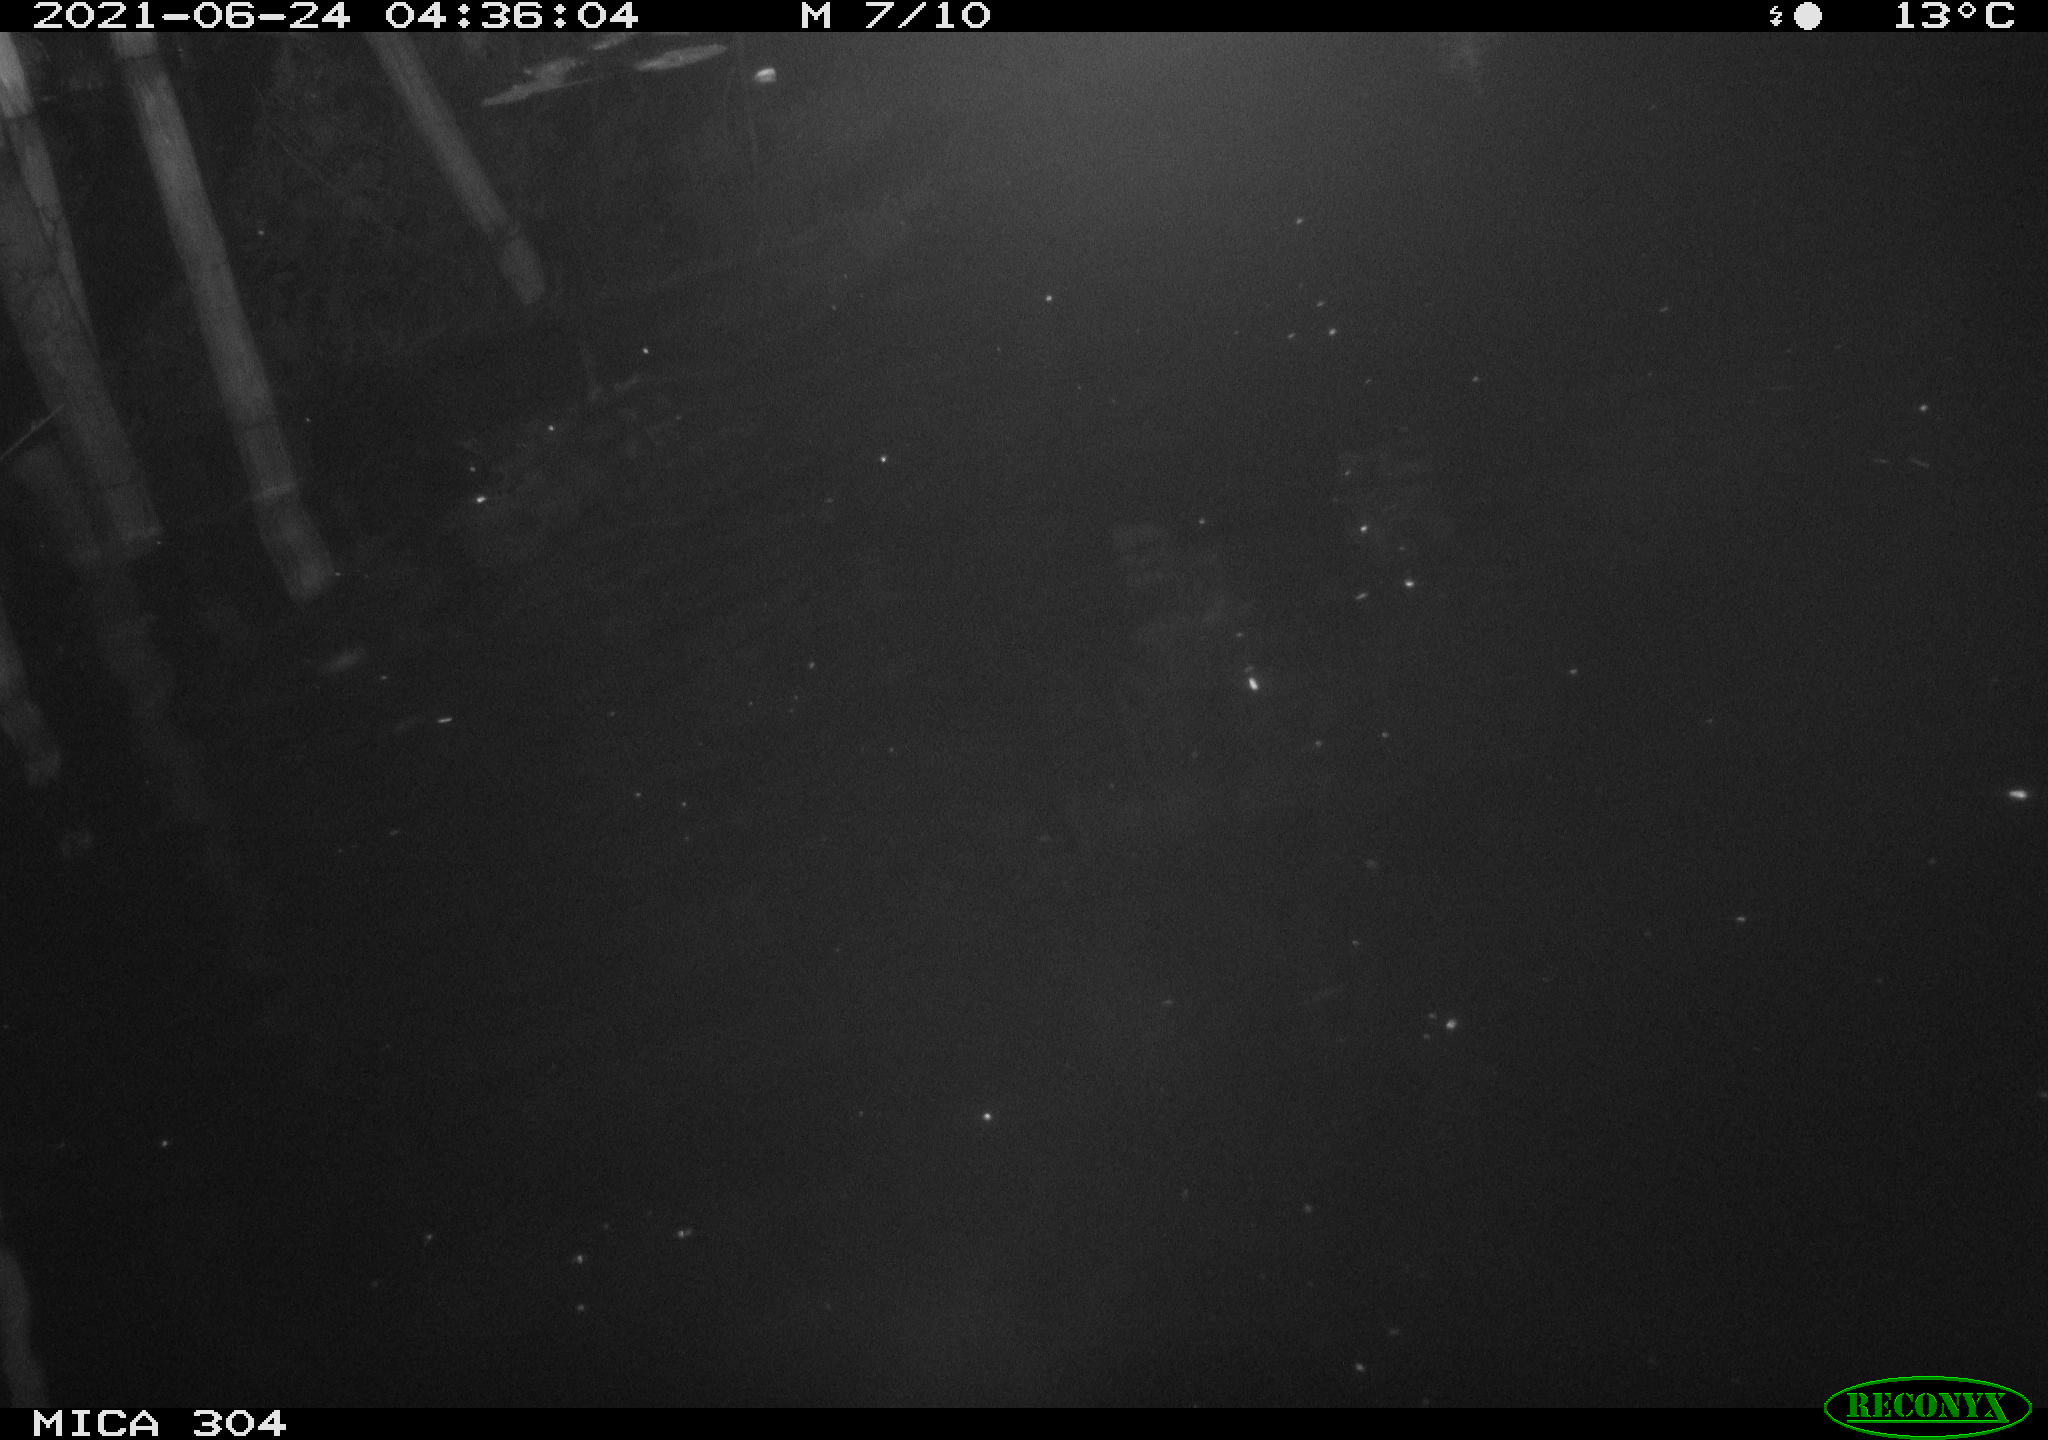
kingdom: Animalia
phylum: Chordata
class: Aves
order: Anseriformes
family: Anatidae
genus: Anas
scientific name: Anas platyrhynchos
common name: Mallard
